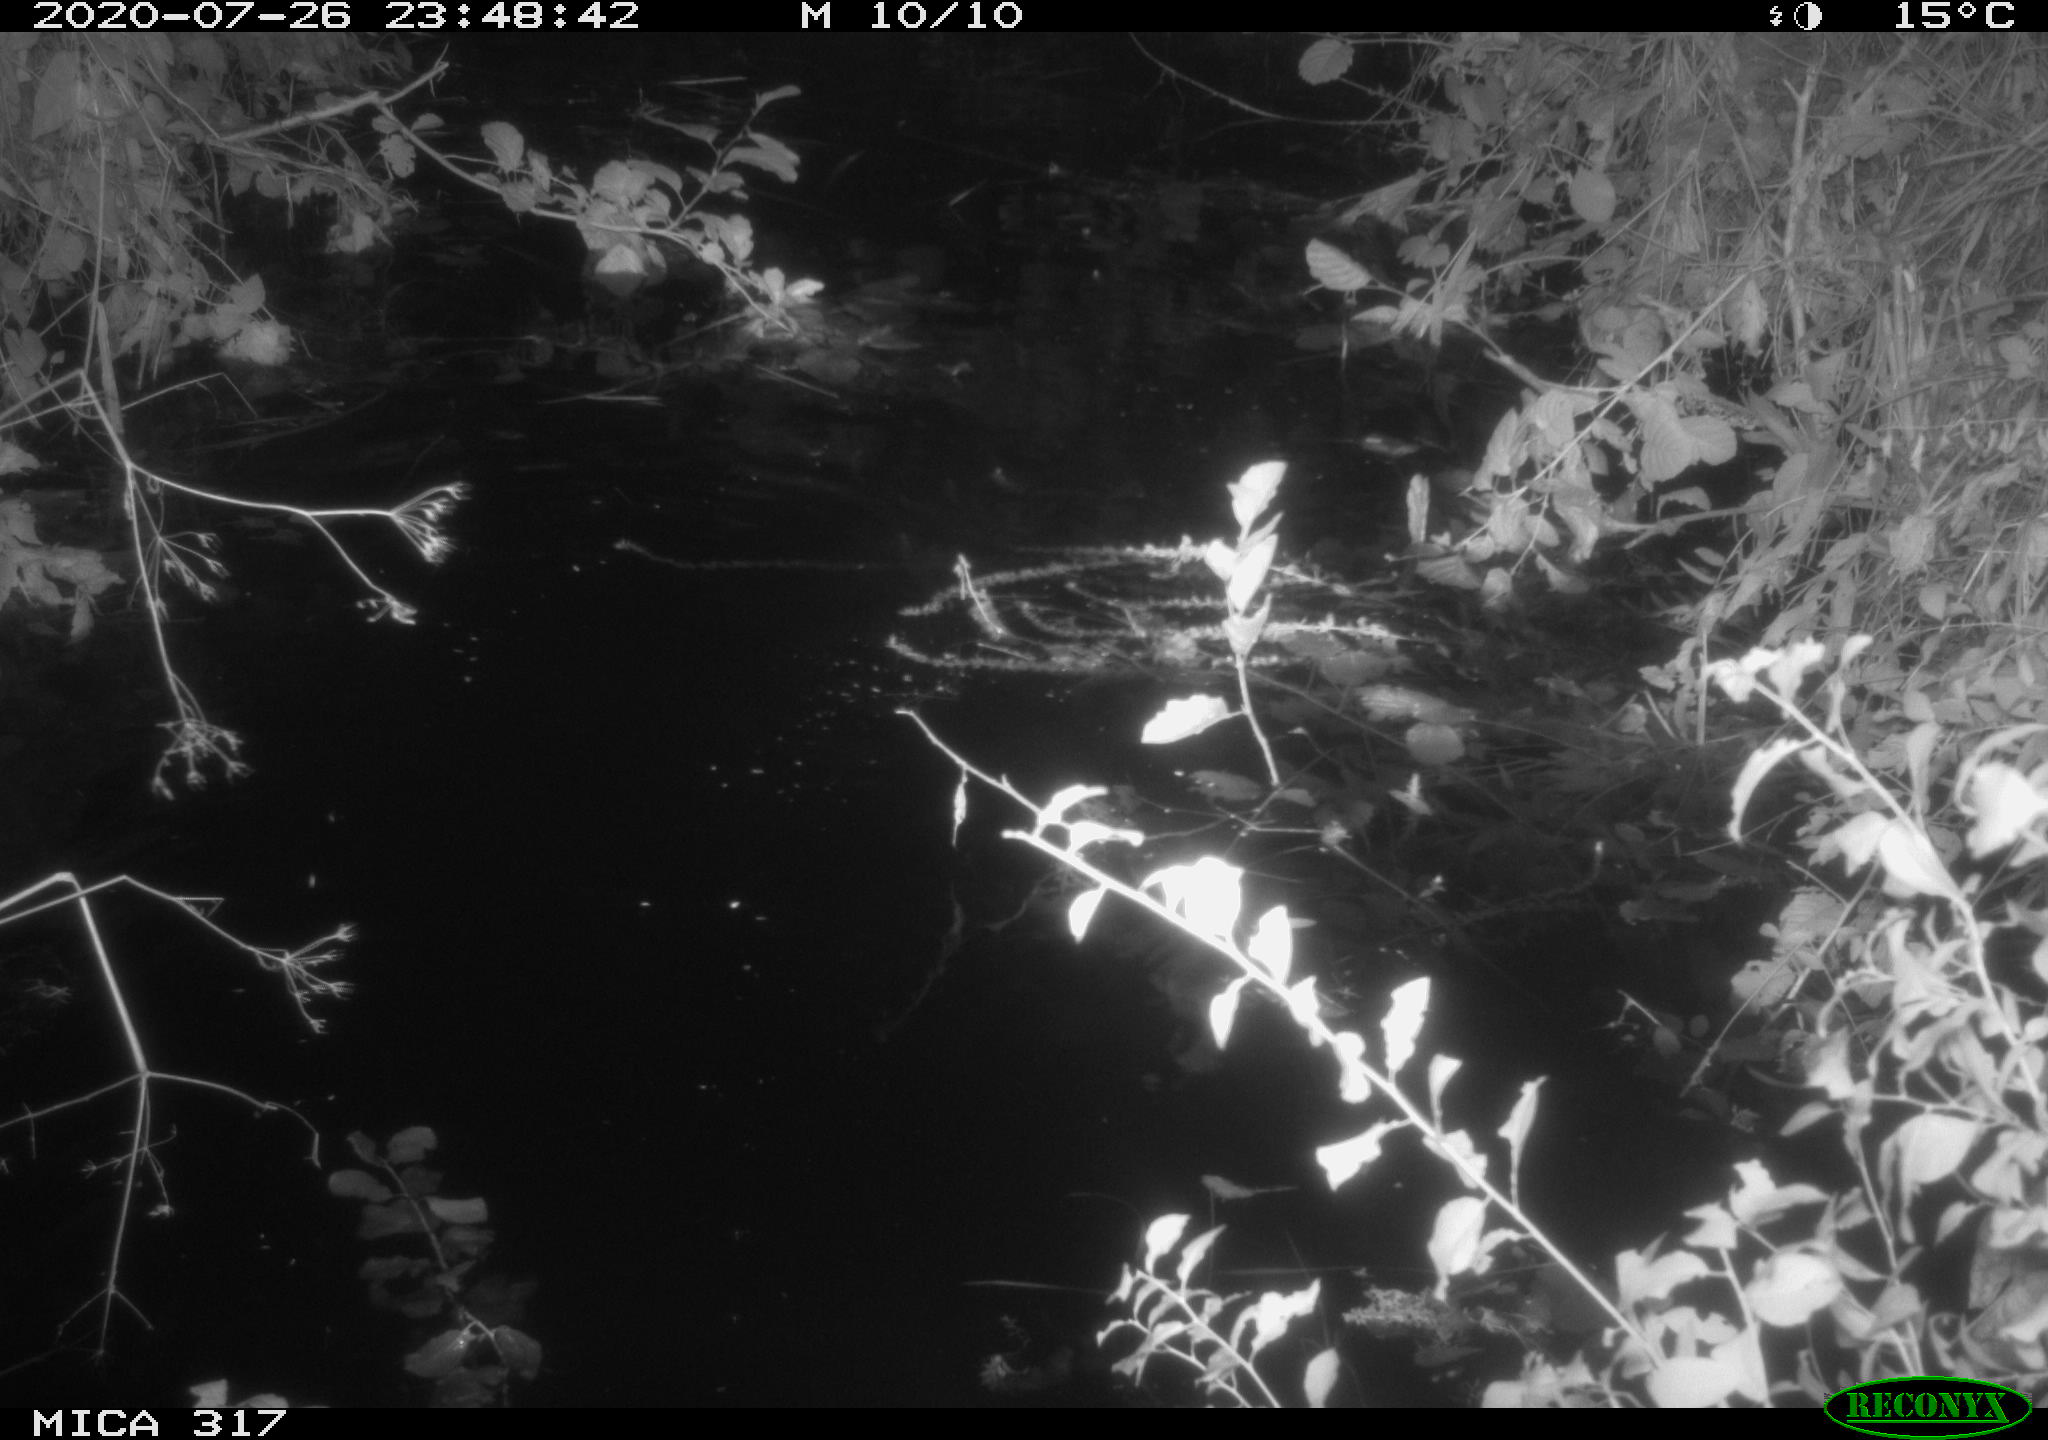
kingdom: Animalia
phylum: Chordata
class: Aves
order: Anseriformes
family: Anatidae
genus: Anas
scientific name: Anas platyrhynchos
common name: Mallard
